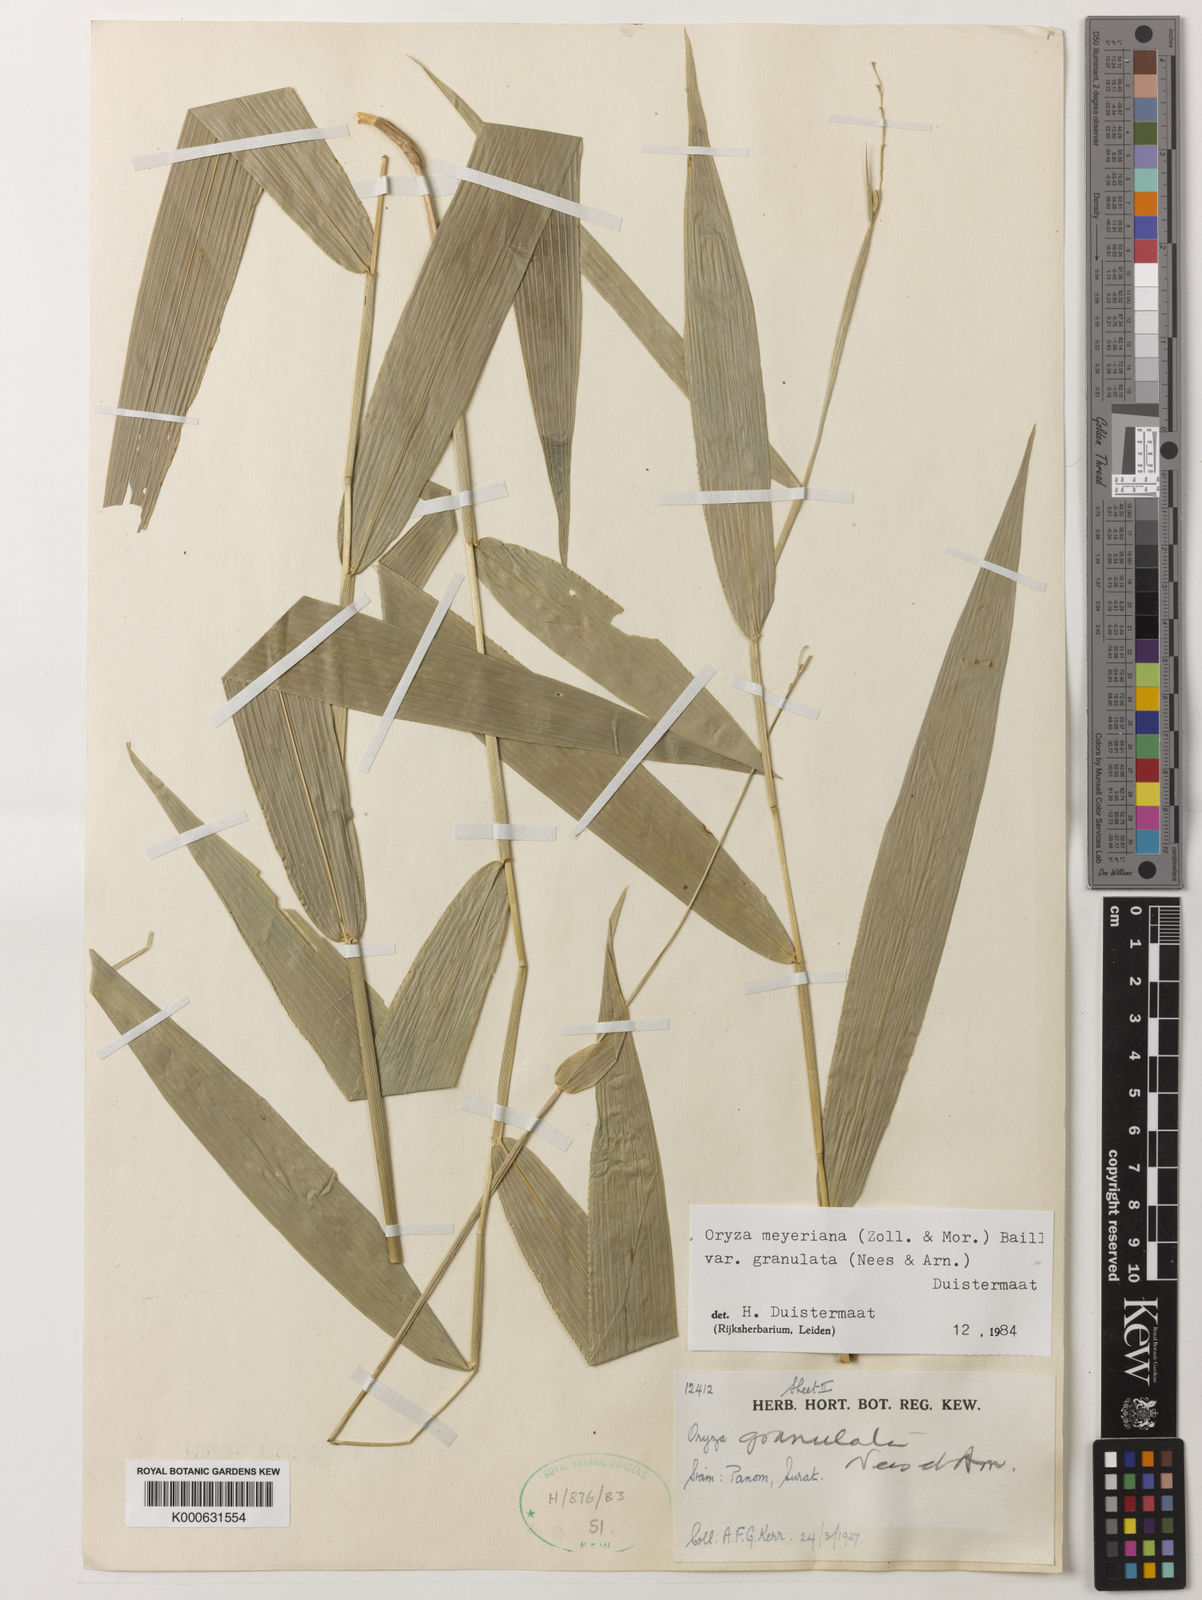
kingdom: Plantae
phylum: Tracheophyta
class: Liliopsida
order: Poales
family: Poaceae
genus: Oryza
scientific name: Oryza meyeriana
